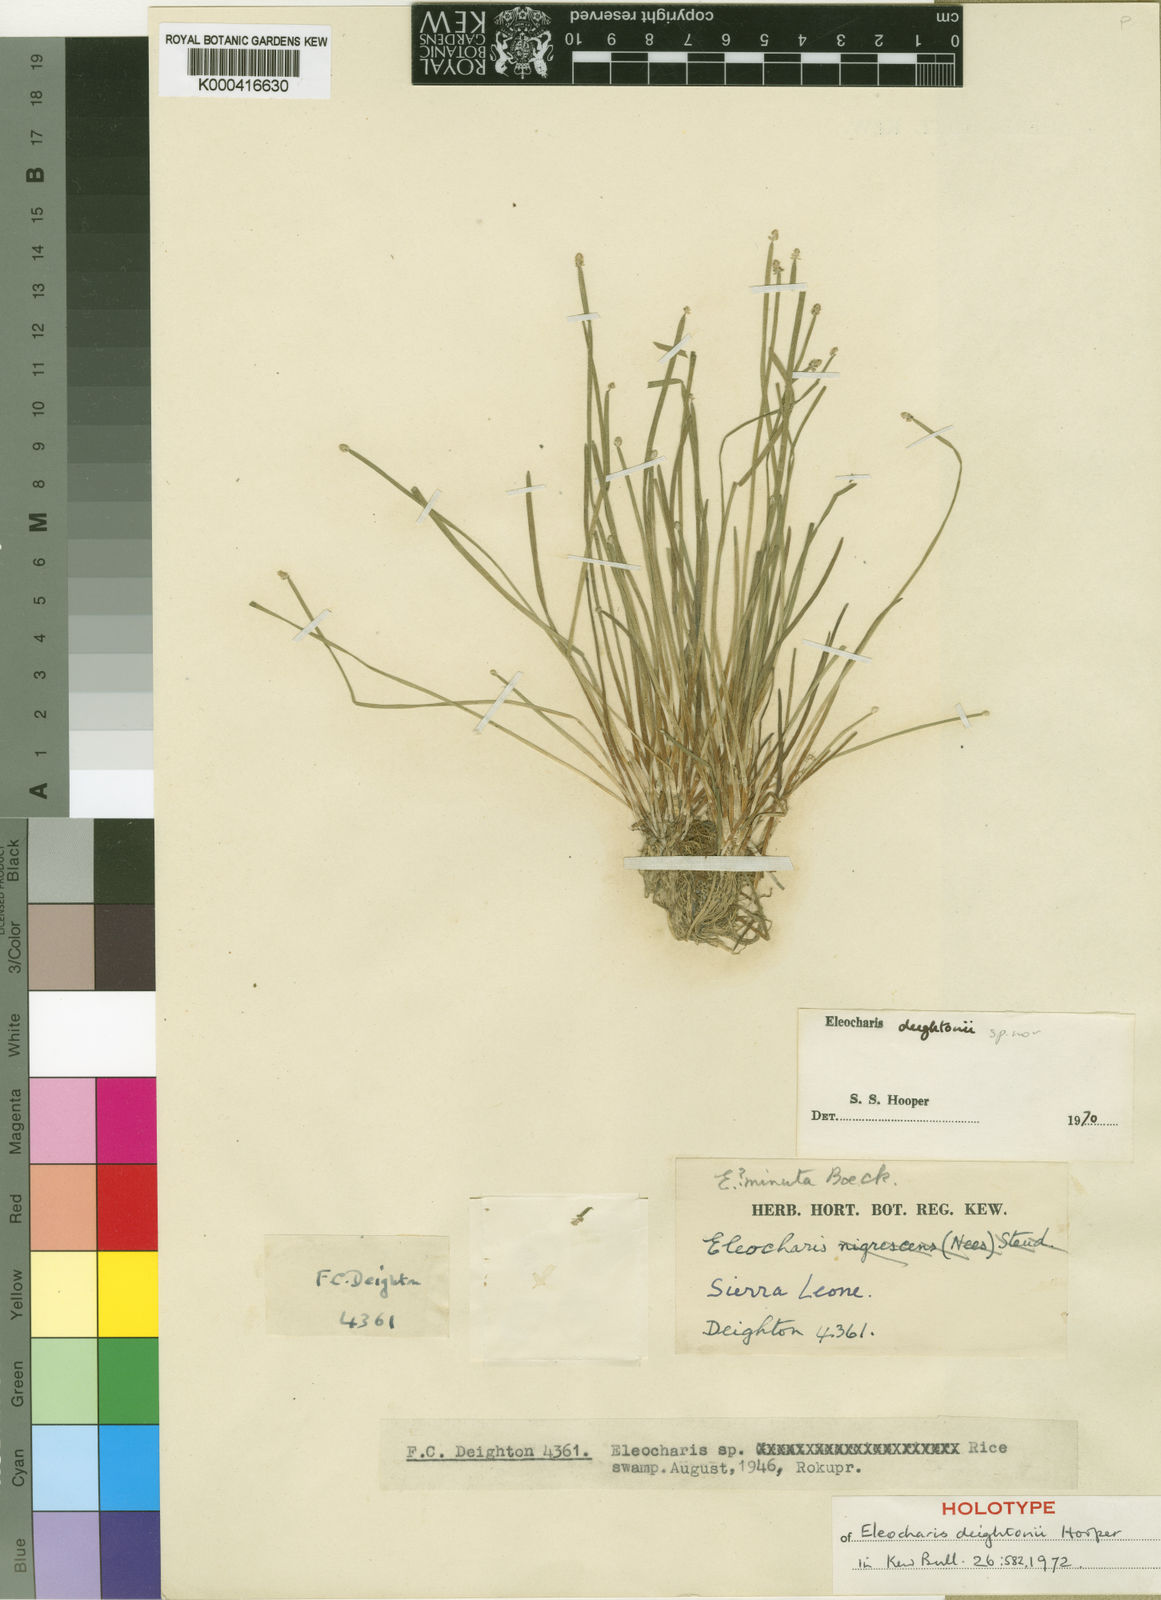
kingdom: Plantae
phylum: Tracheophyta
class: Liliopsida
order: Poales
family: Cyperaceae
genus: Eleocharis
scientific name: Eleocharis deightonii
